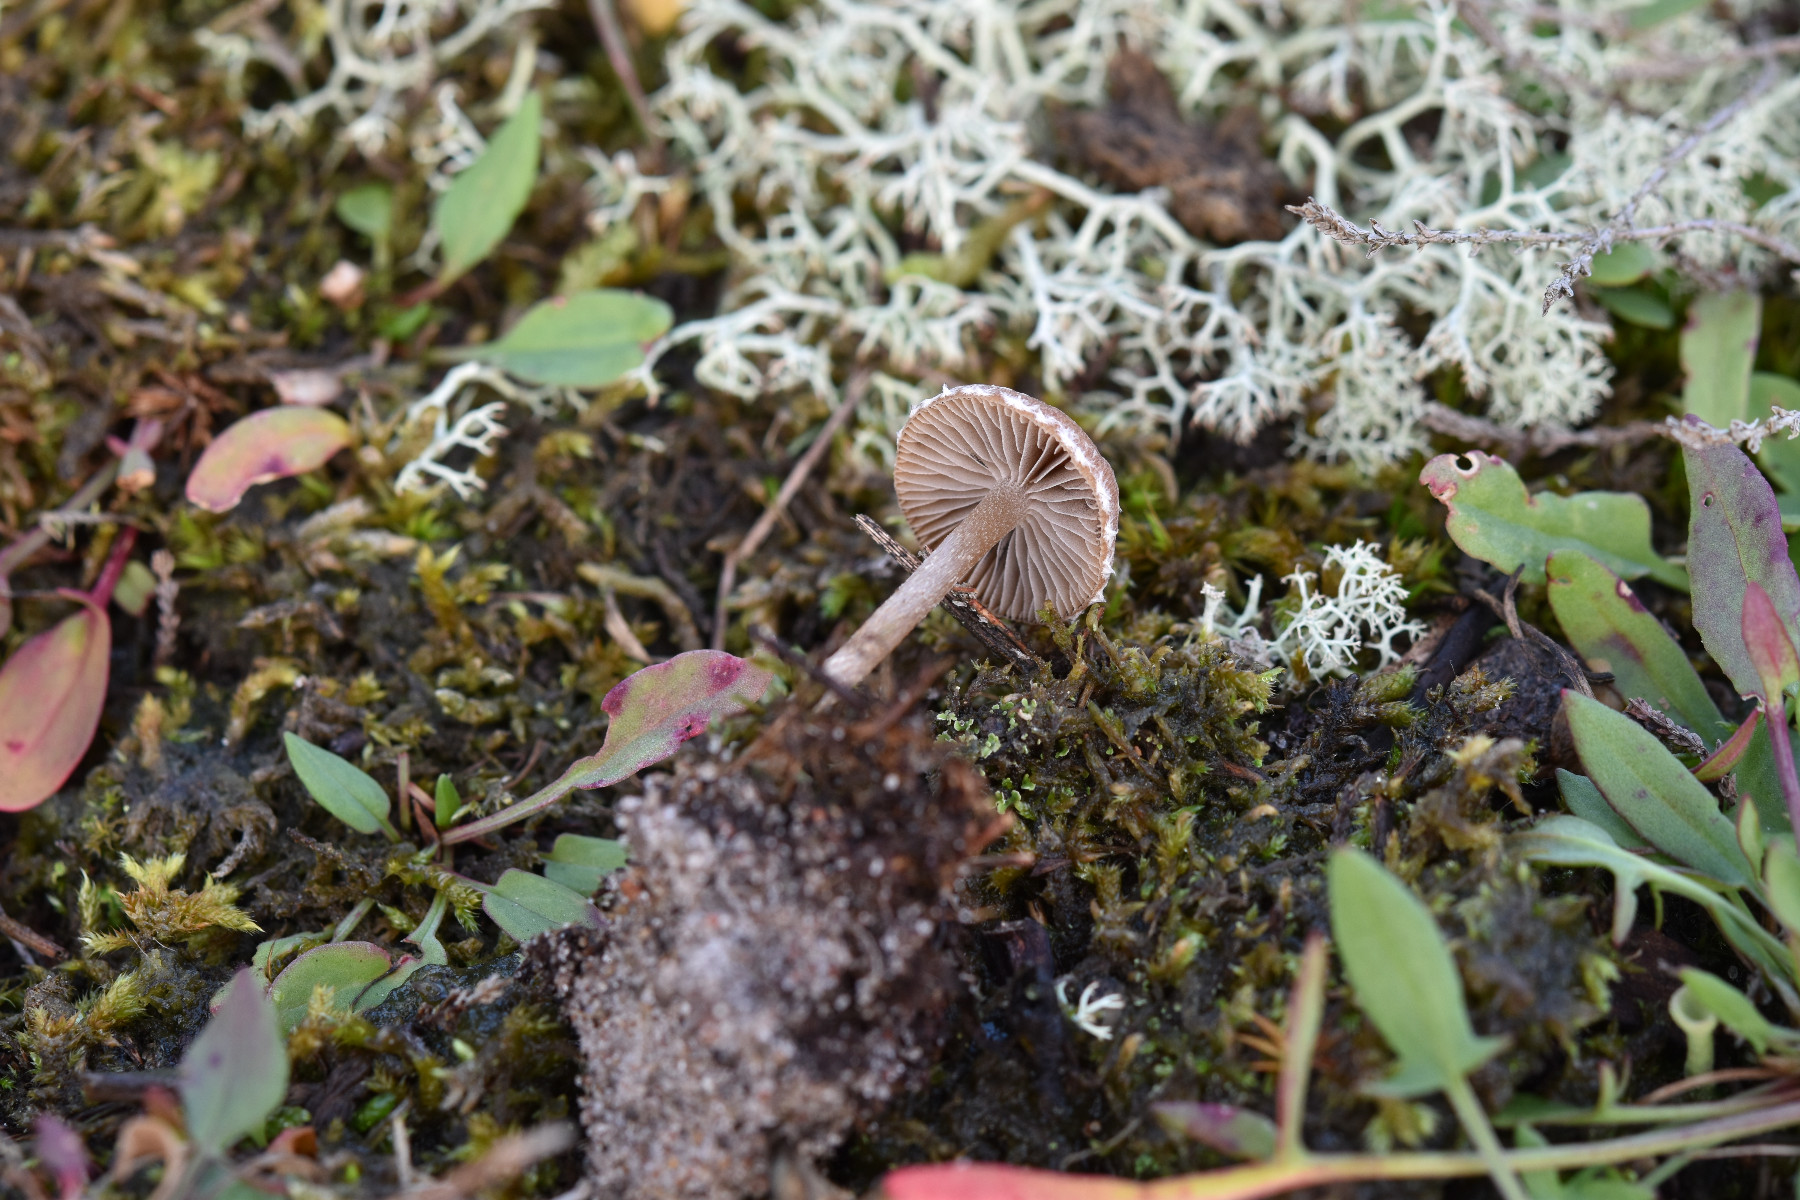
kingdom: Fungi
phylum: Basidiomycota
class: Agaricomycetes
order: Agaricales
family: Psathyrellaceae
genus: Psathyrella
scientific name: Psathyrella flexispora
